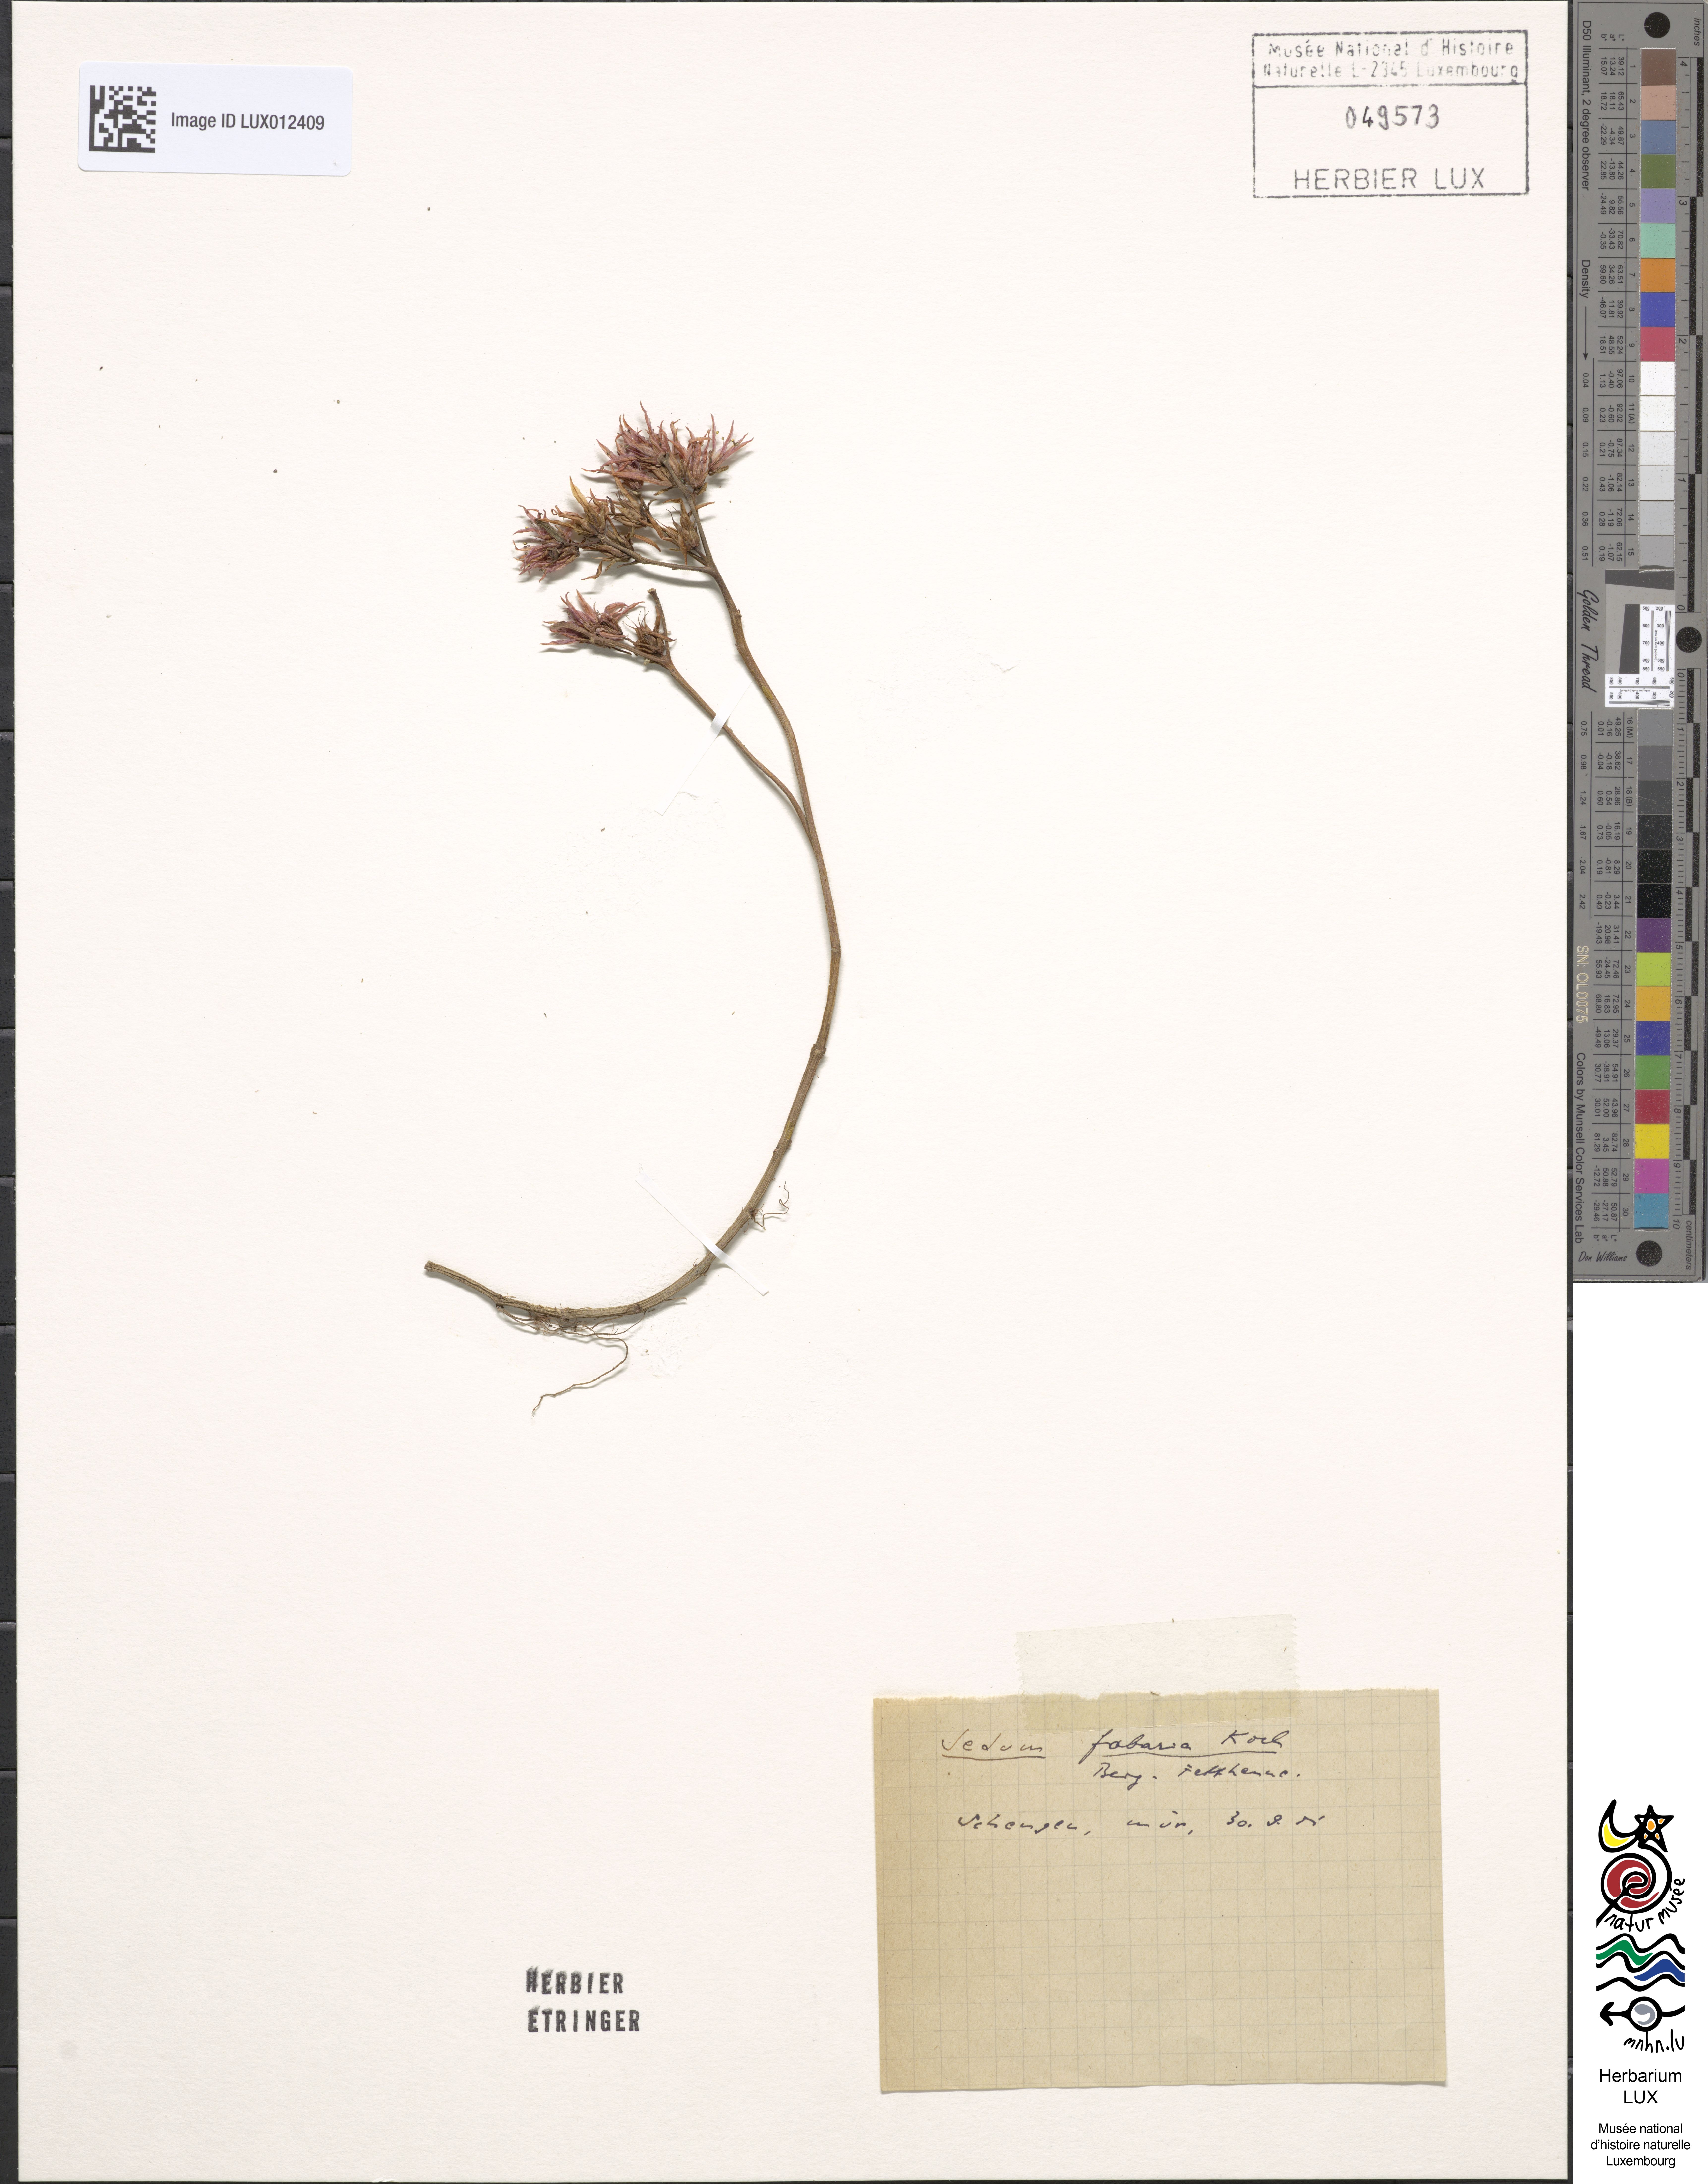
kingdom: Plantae
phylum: Tracheophyta
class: Magnoliopsida
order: Saxifragales
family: Crassulaceae
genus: Hylotelephium
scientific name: Hylotelephium vulgare
